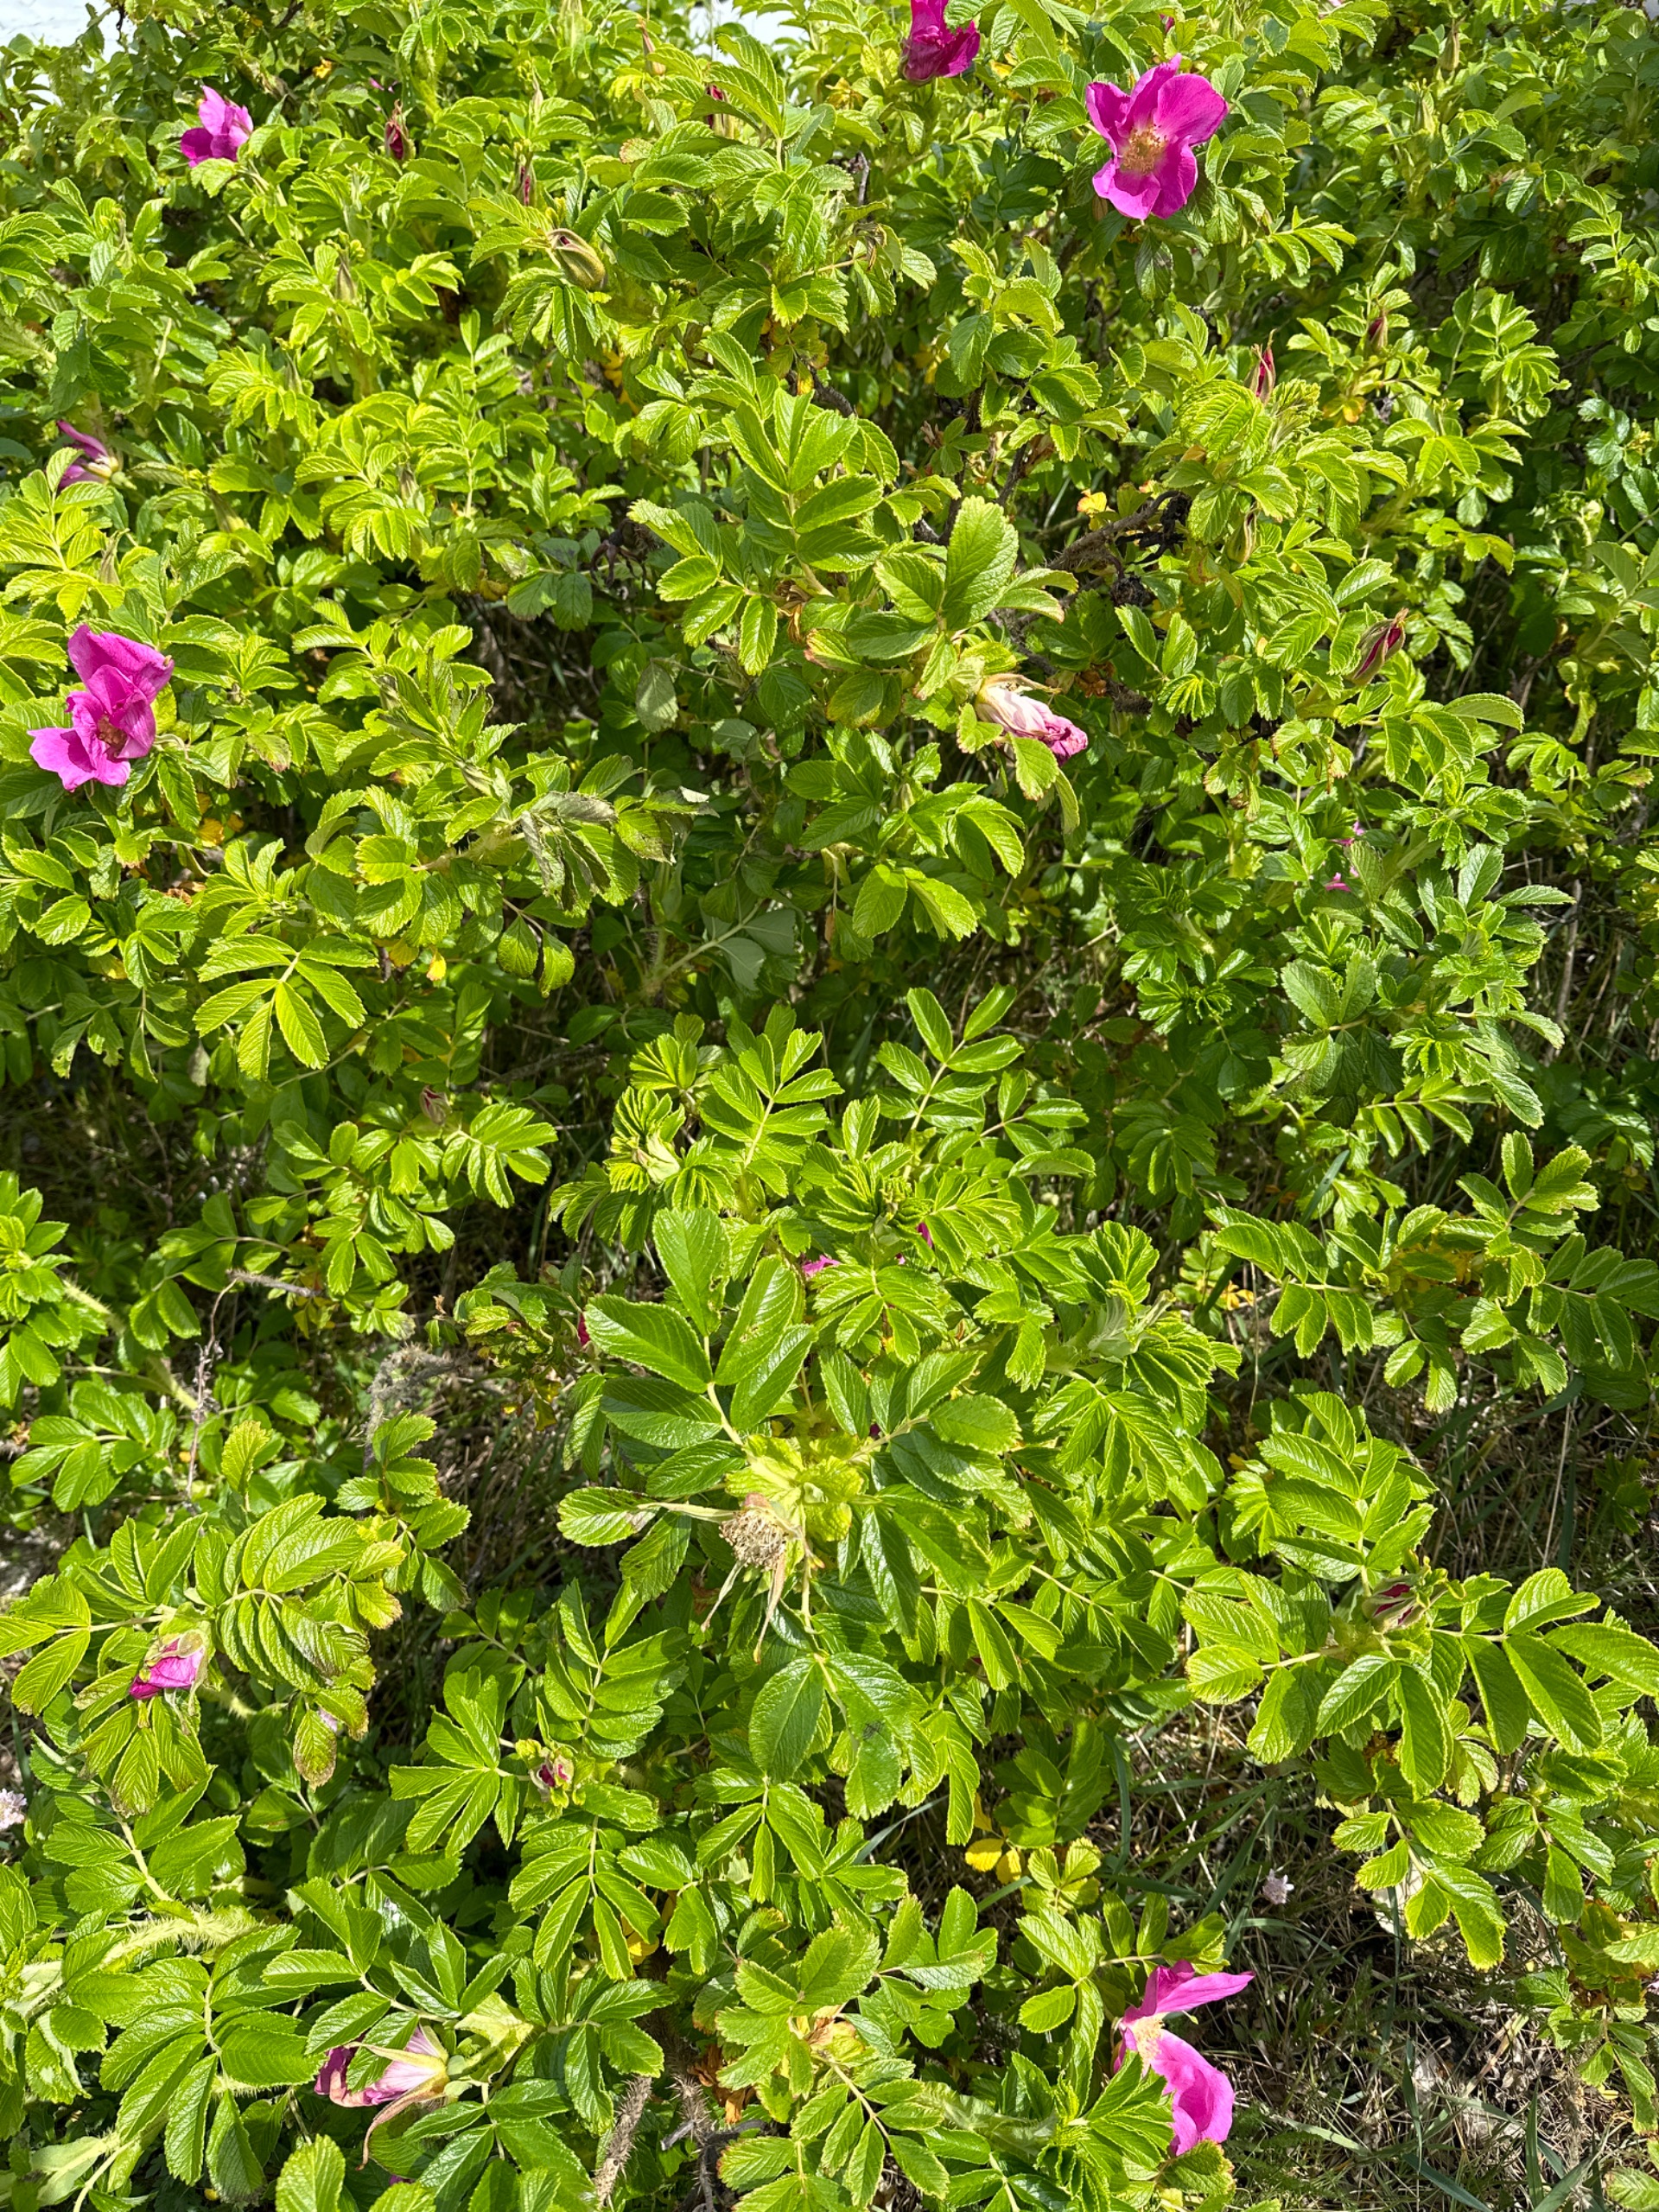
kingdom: Plantae
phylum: Tracheophyta
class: Magnoliopsida
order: Rosales
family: Rosaceae
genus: Rosa
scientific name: Rosa rugosa
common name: Rynket rose
